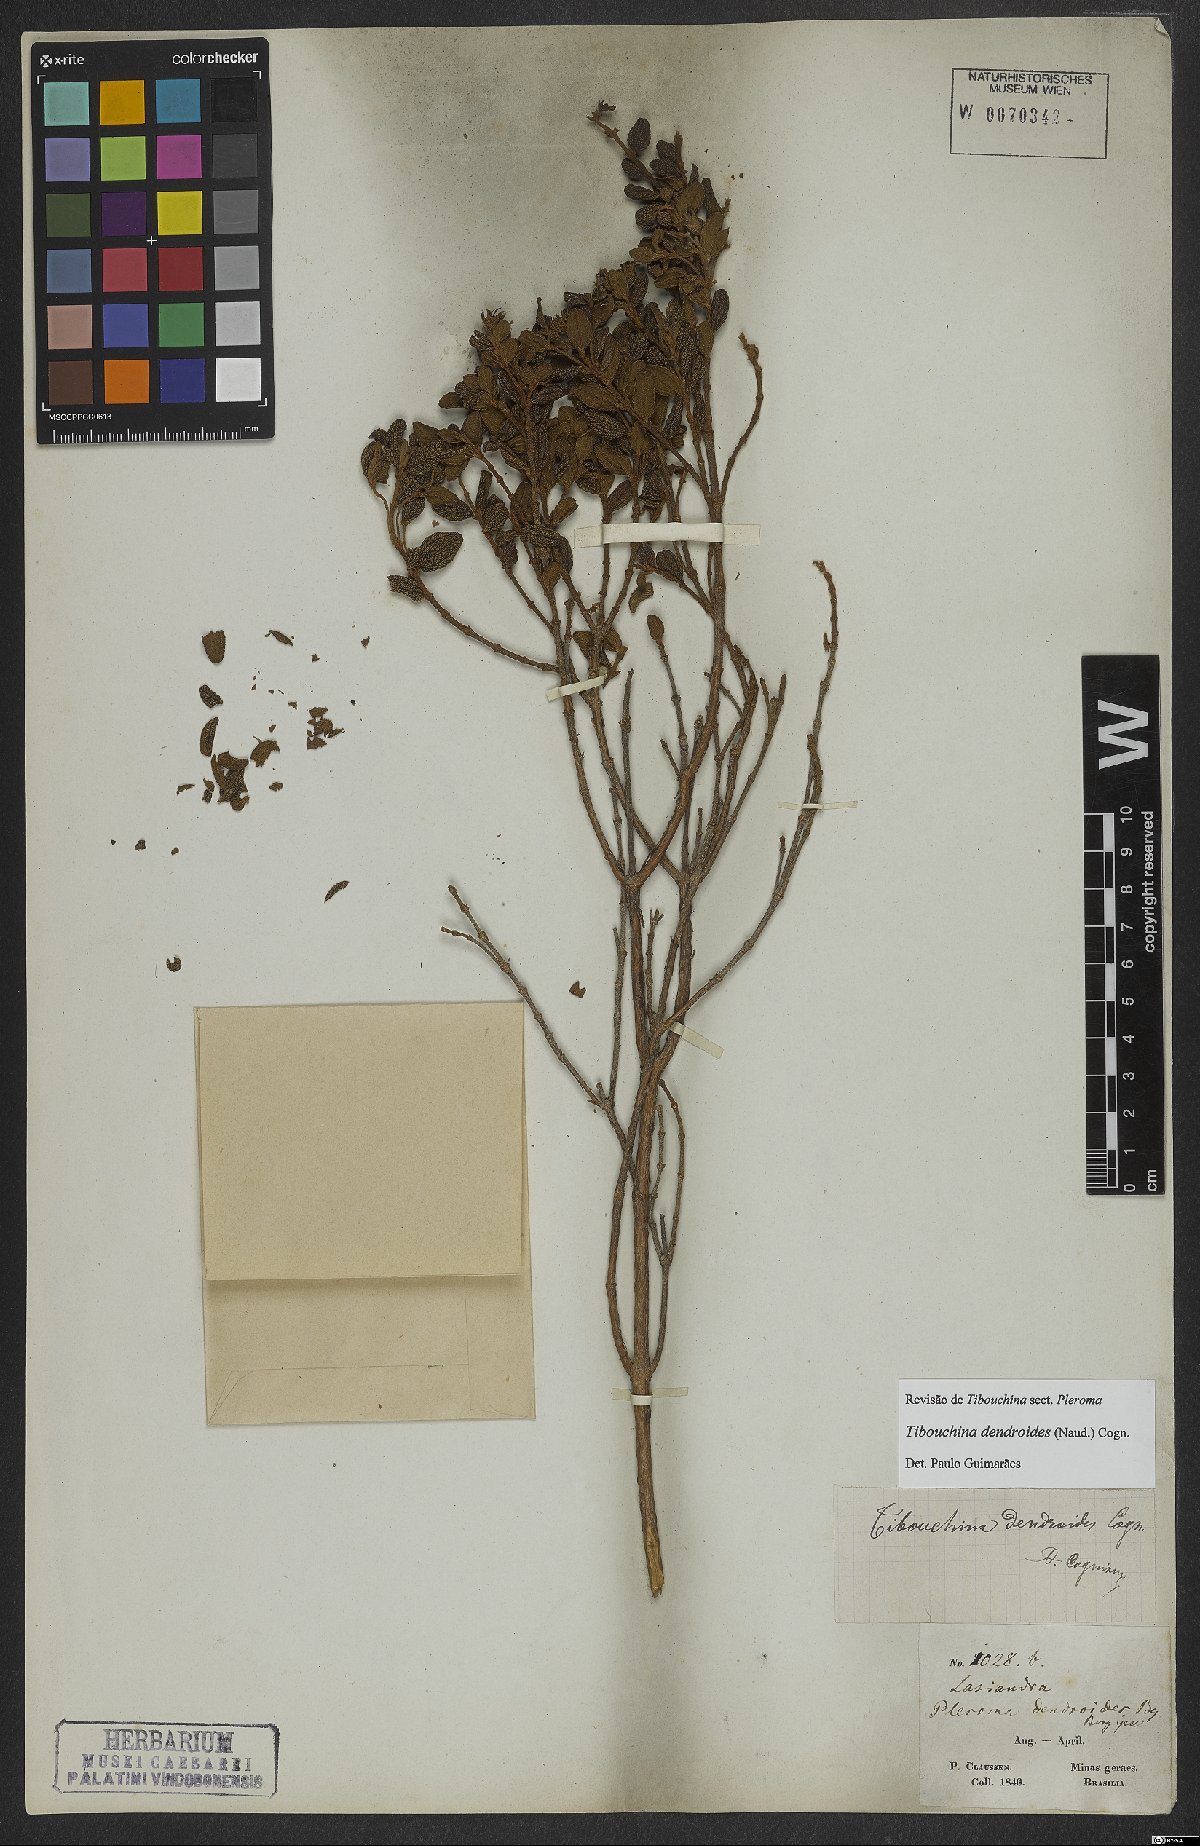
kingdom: Plantae
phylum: Tracheophyta
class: Magnoliopsida
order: Myrtales
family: Melastomataceae
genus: Pleroma
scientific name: Pleroma dendroides
